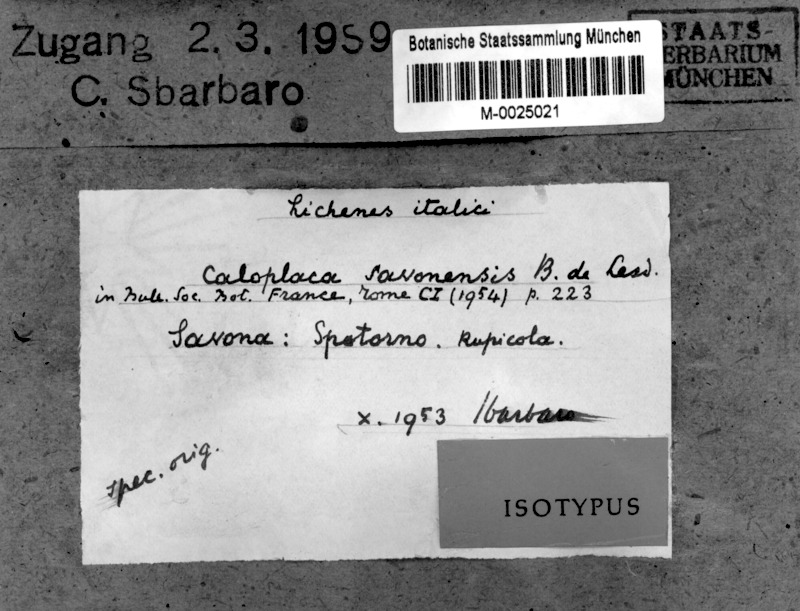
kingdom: Fungi
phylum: Ascomycota
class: Lecanoromycetes
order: Teloschistales
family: Teloschistaceae
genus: Caloplaca
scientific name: Caloplaca spotornonis
